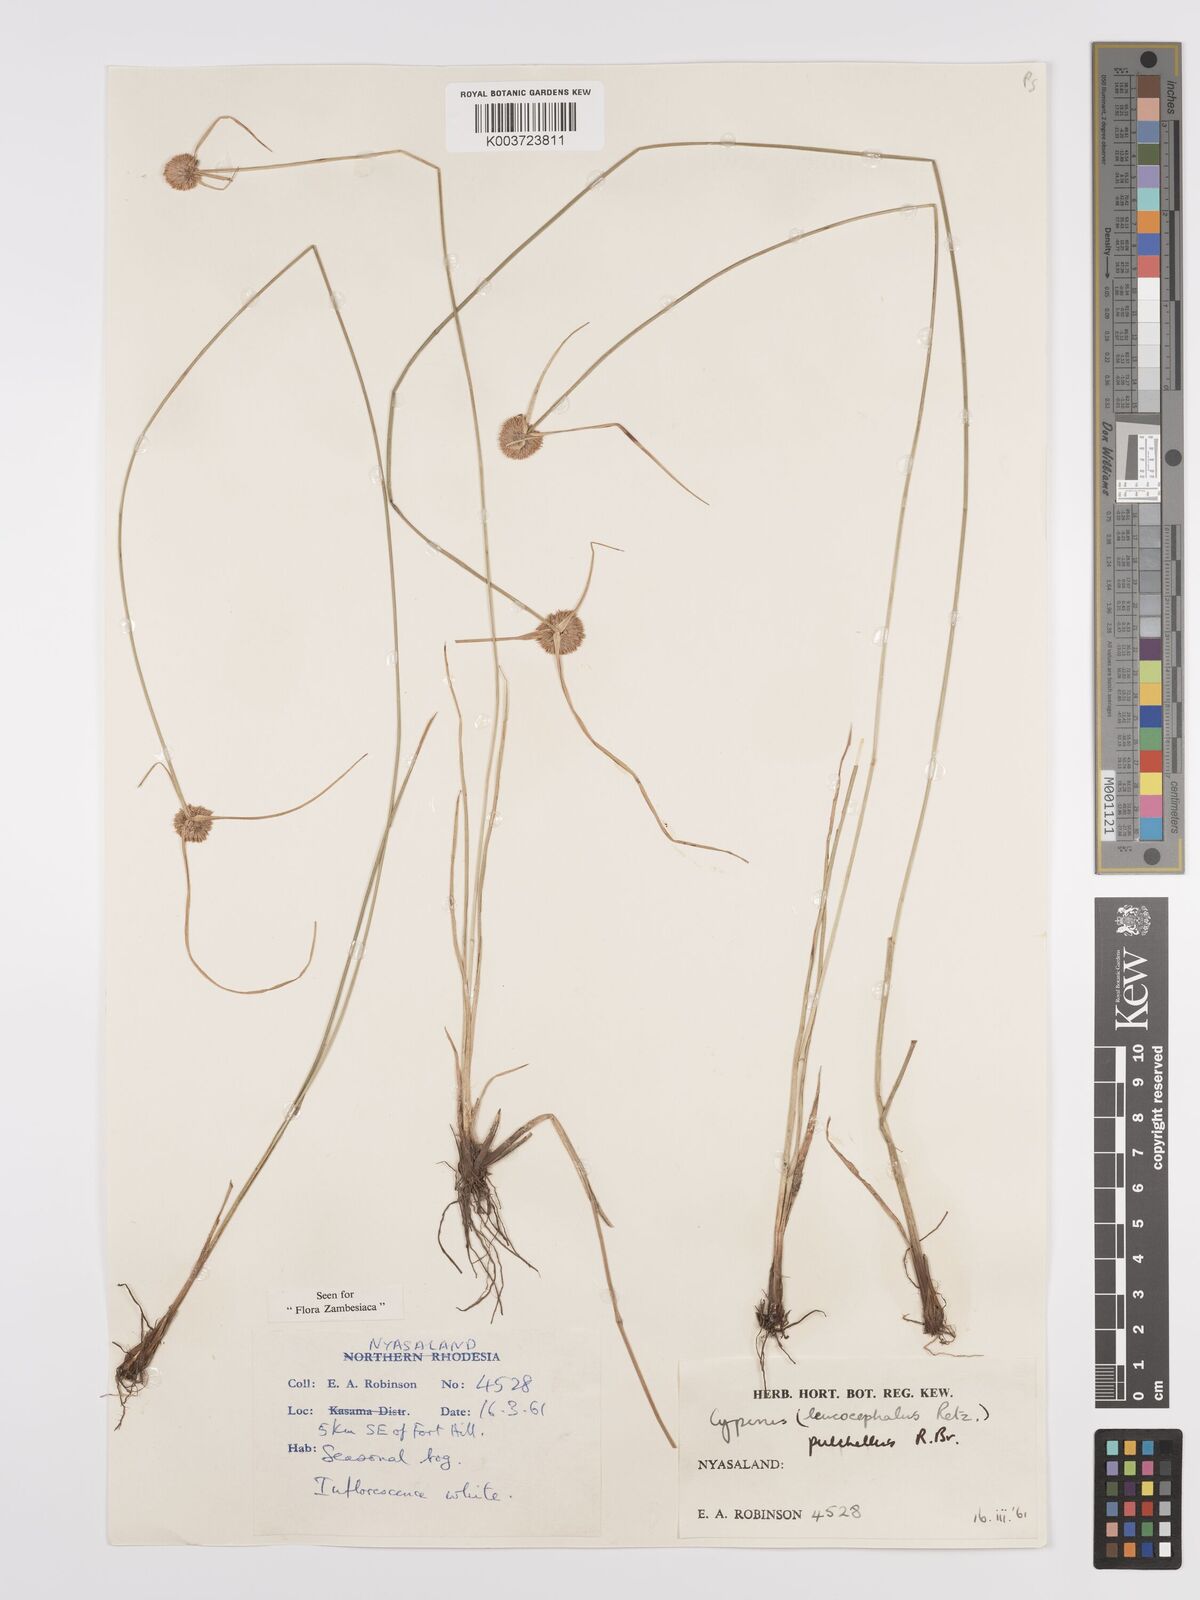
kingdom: Plantae
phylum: Tracheophyta
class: Liliopsida
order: Poales
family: Cyperaceae
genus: Cyperus
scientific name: Cyperus pulchellus
